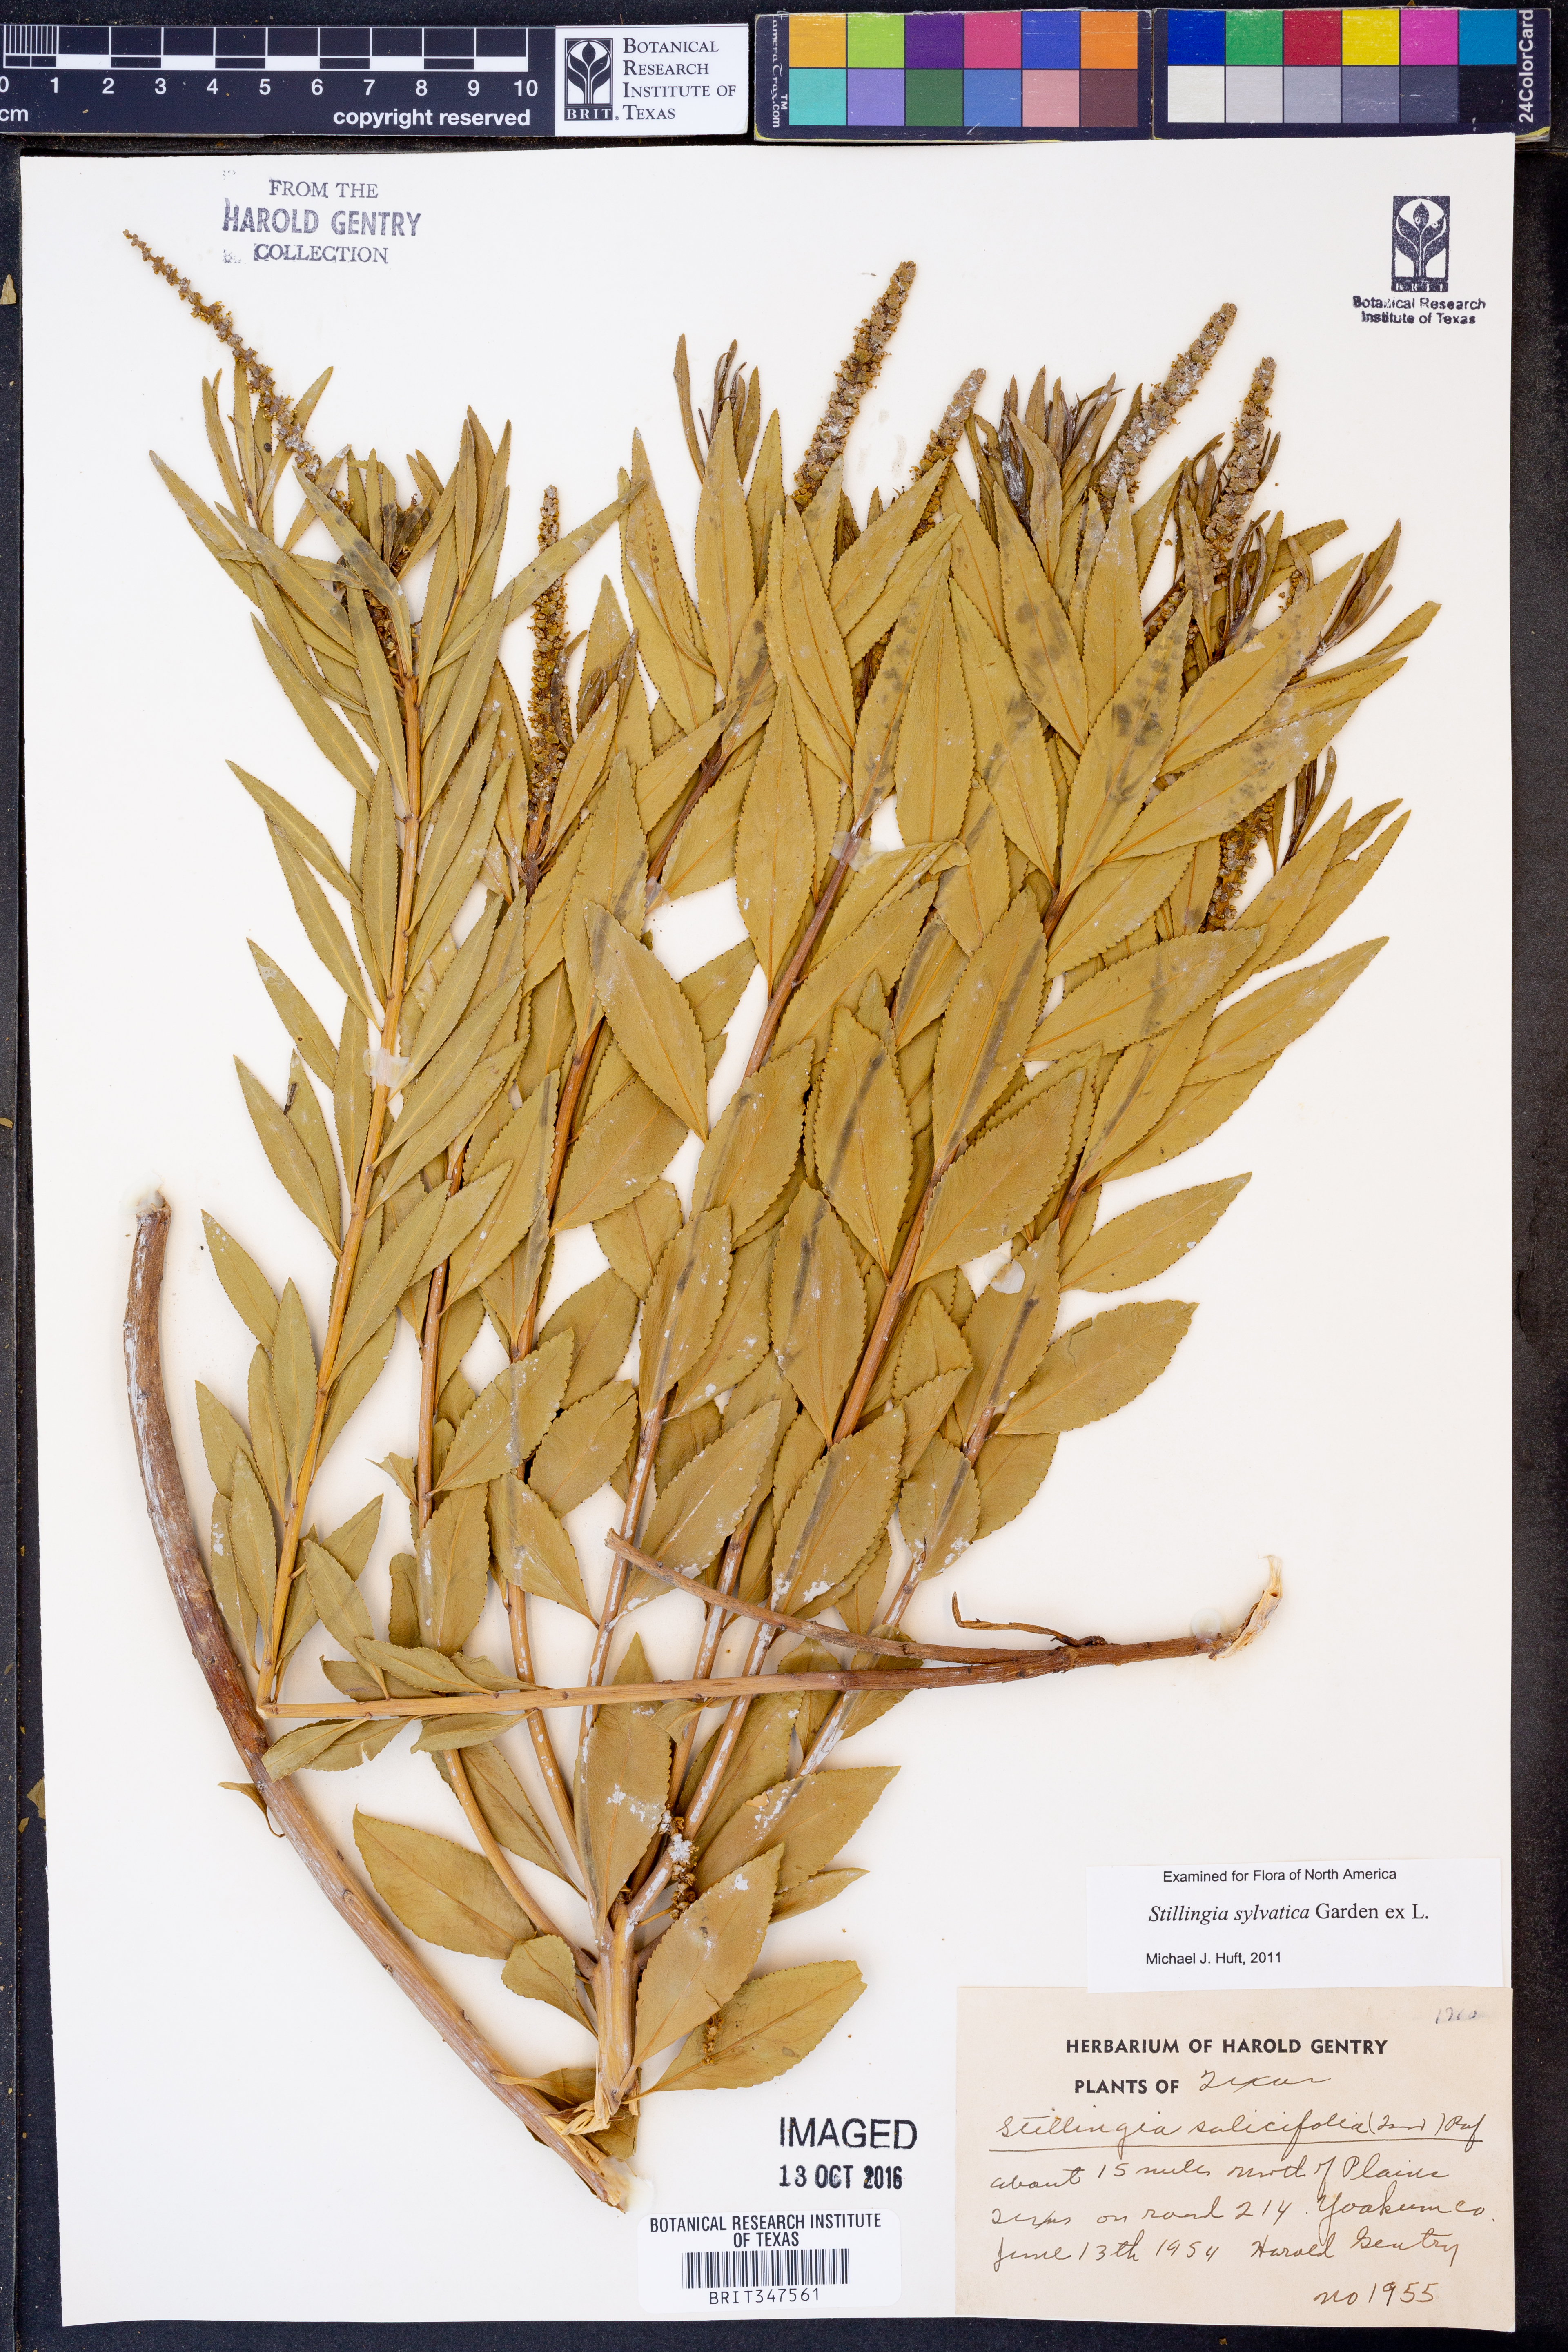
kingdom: Plantae
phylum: Tracheophyta
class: Magnoliopsida
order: Malpighiales
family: Euphorbiaceae
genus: Stillingia
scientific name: Stillingia sylvatica
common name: Queen's-delight
